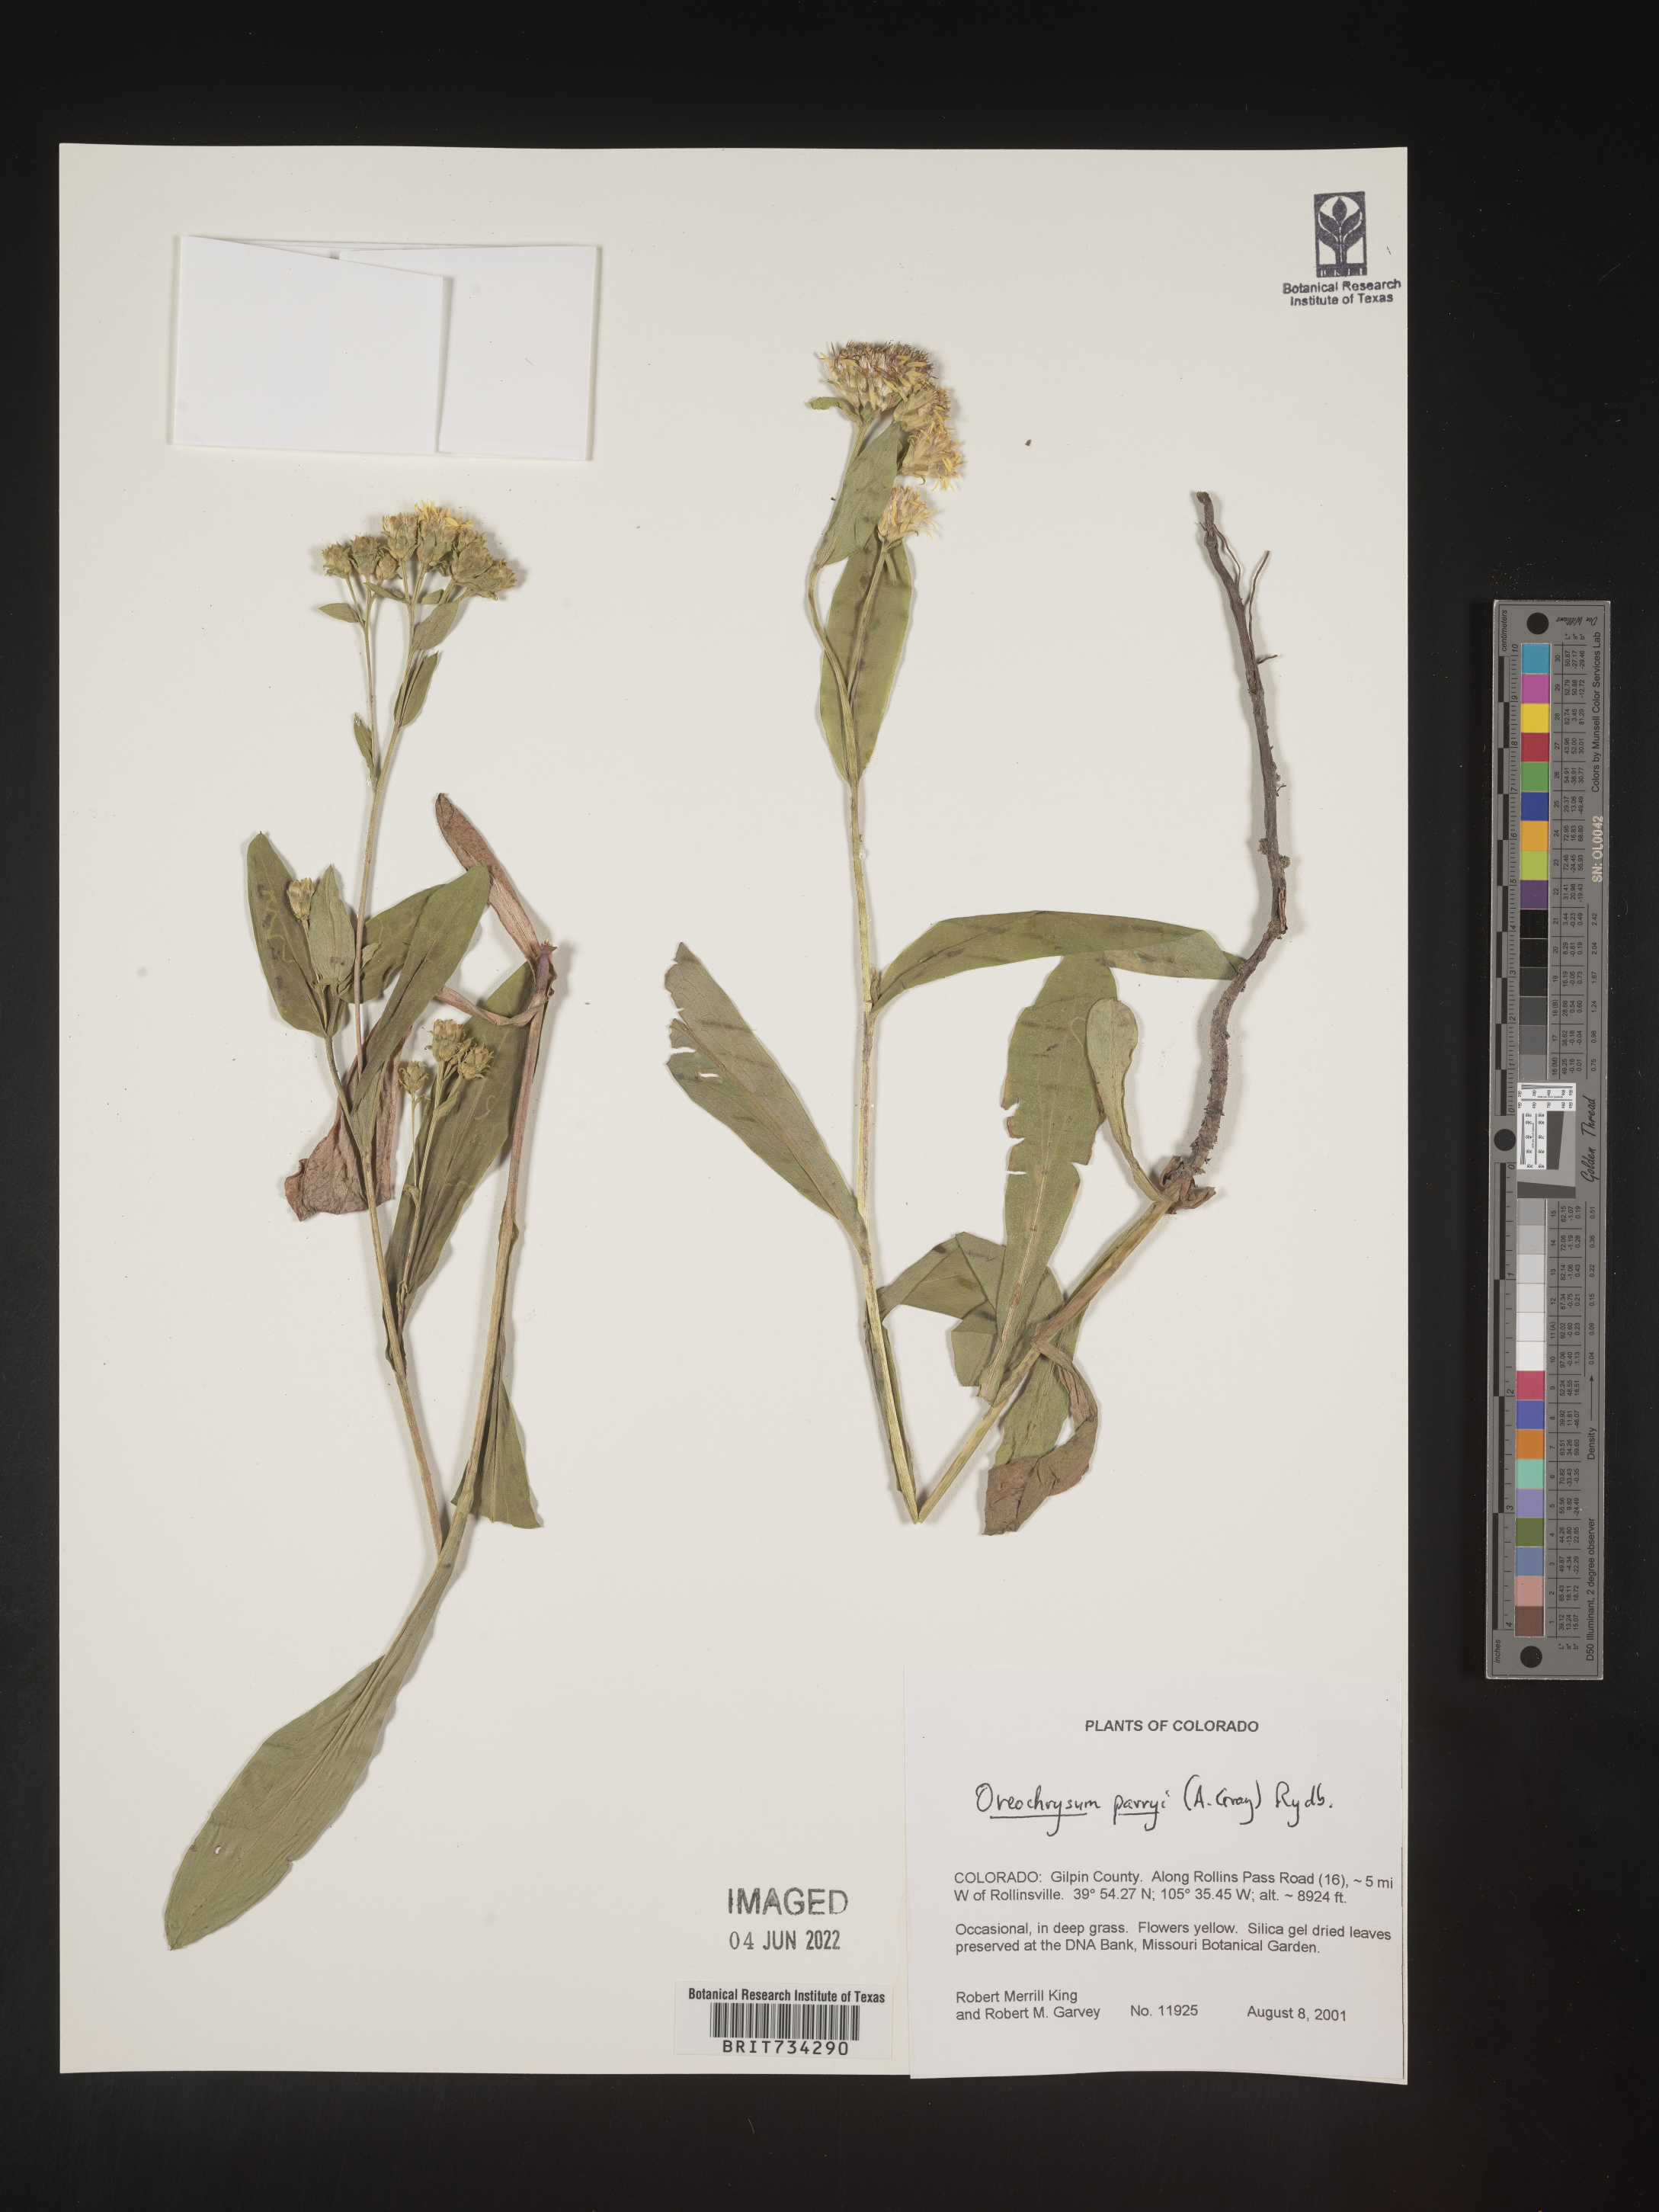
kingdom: Plantae
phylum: Tracheophyta
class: Magnoliopsida
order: Asterales
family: Asteraceae
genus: Oreochrysum
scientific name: Oreochrysum parryi
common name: Parry's goldenweed
